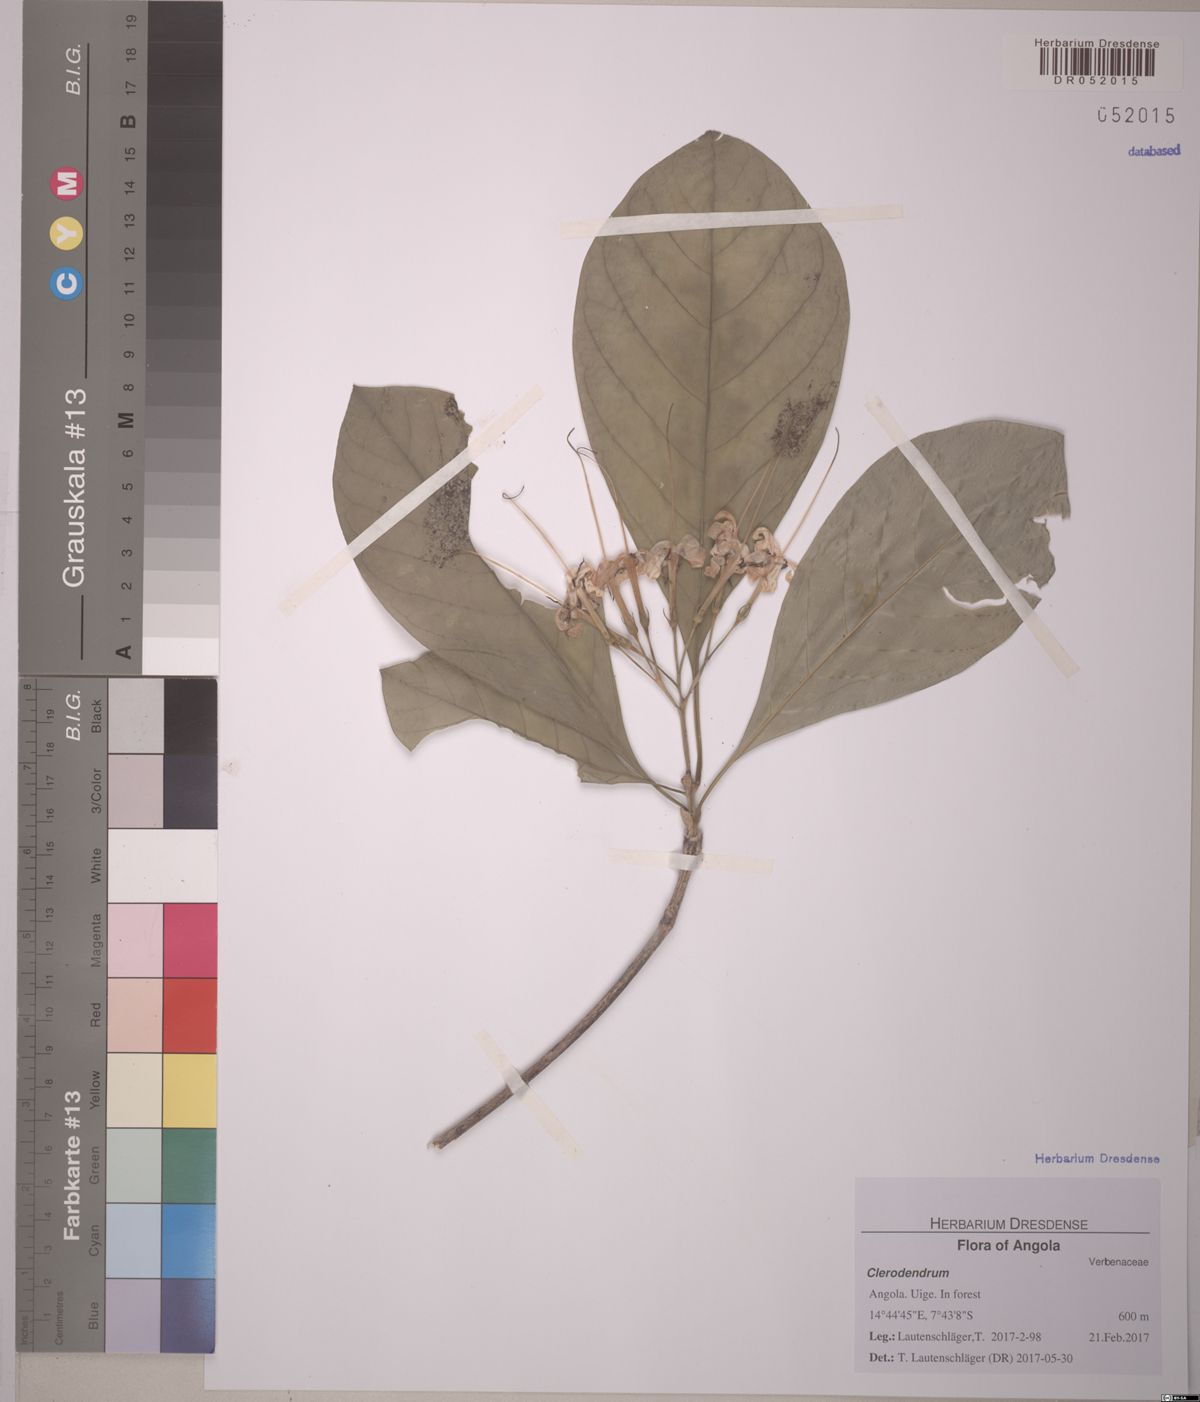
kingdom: Plantae
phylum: Tracheophyta
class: Magnoliopsida
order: Gentianales
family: Rubiaceae
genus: Pavetta
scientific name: Pavetta membranifolia
